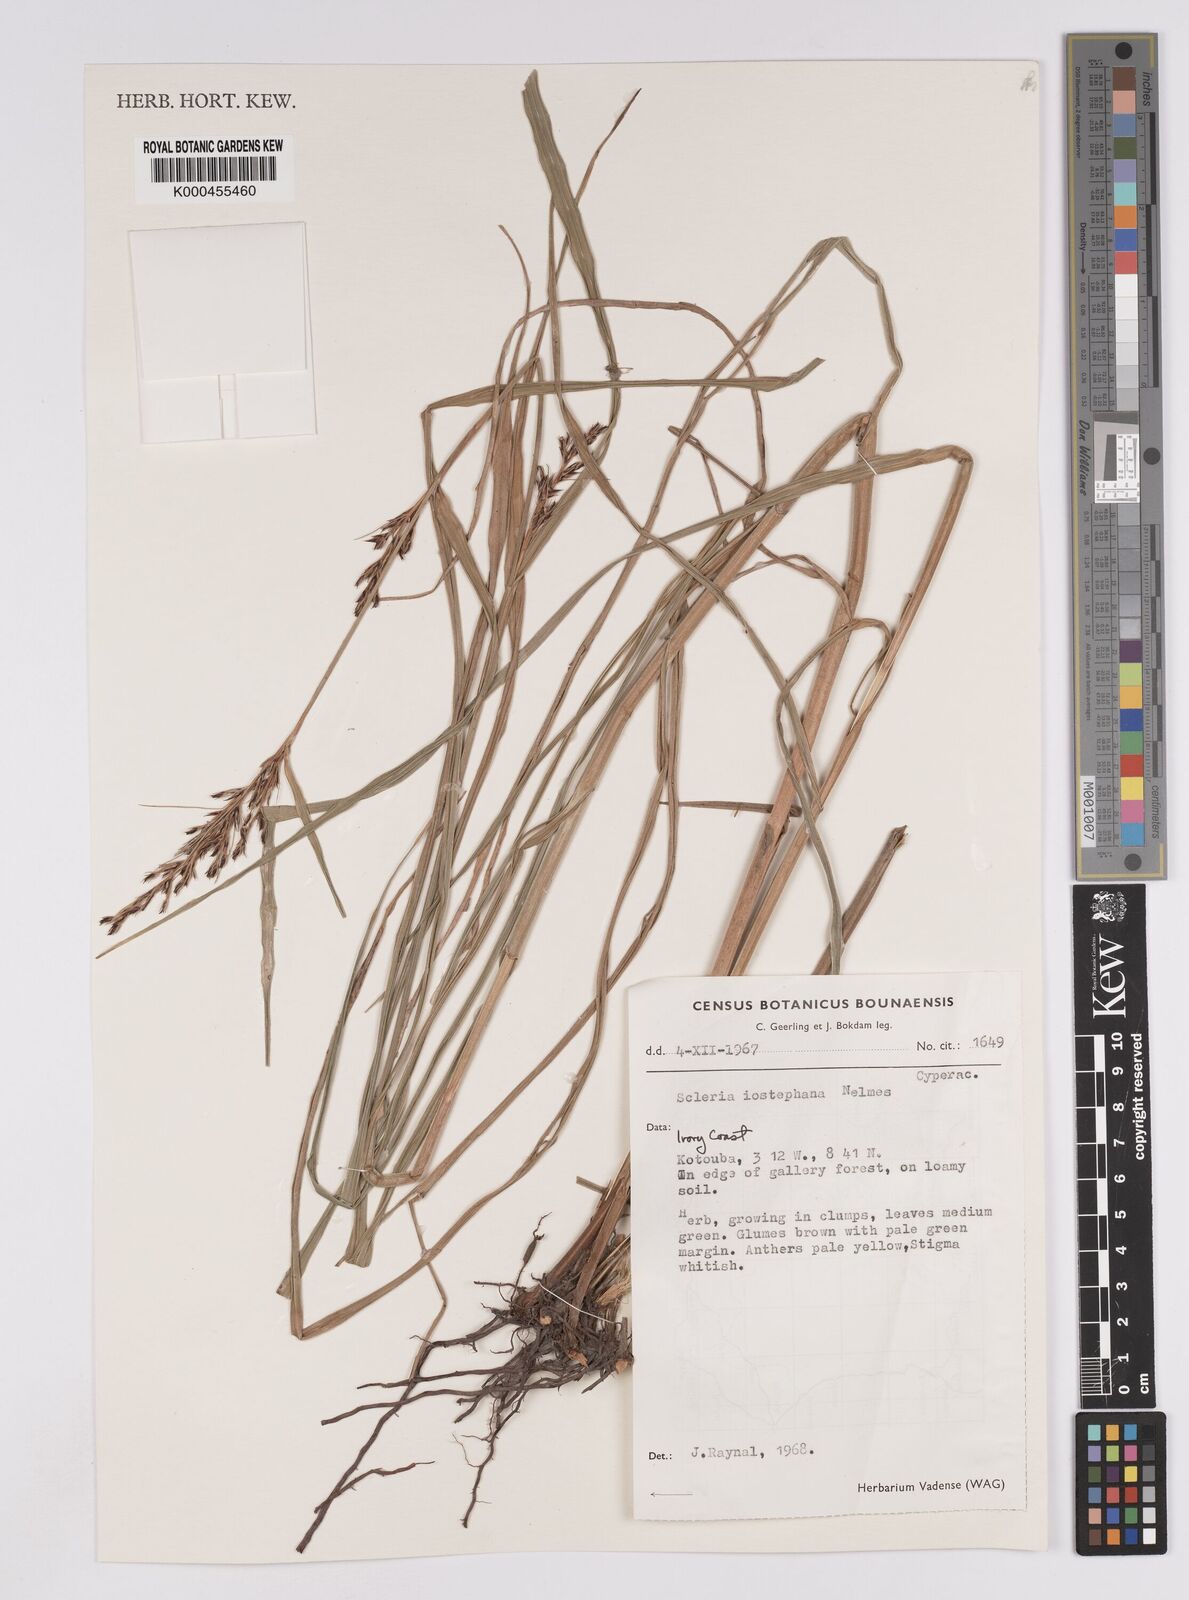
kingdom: Plantae
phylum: Tracheophyta
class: Liliopsida
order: Poales
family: Cyperaceae
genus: Scleria
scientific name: Scleria iostephana
